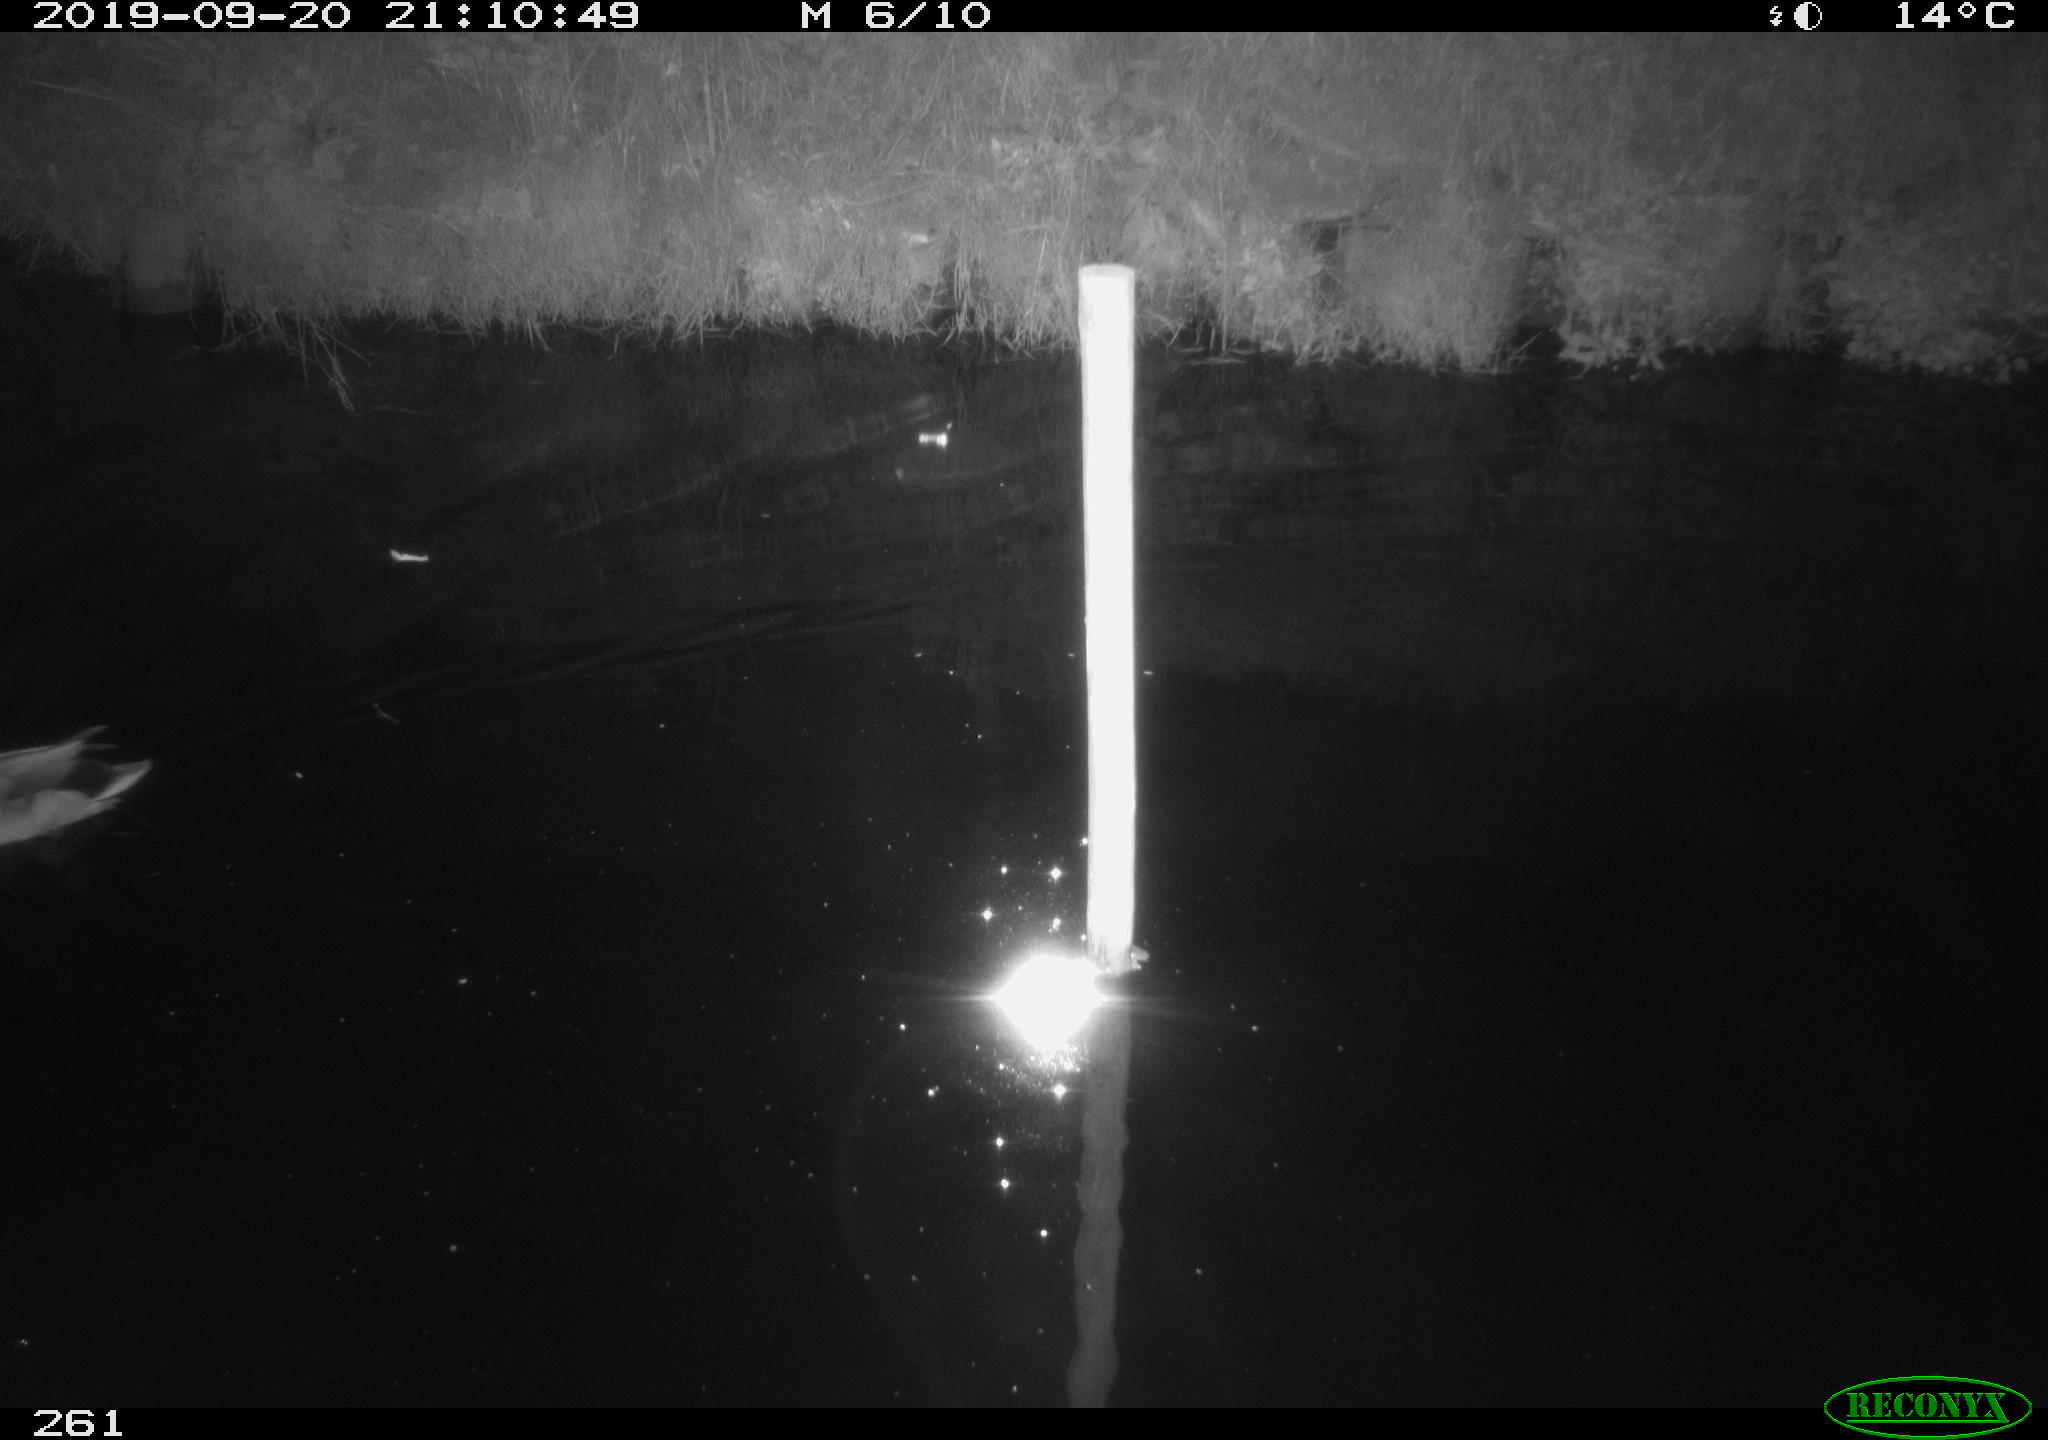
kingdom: Animalia
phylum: Chordata
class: Aves
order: Anseriformes
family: Anatidae
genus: Anas
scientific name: Anas platyrhynchos
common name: Mallard
